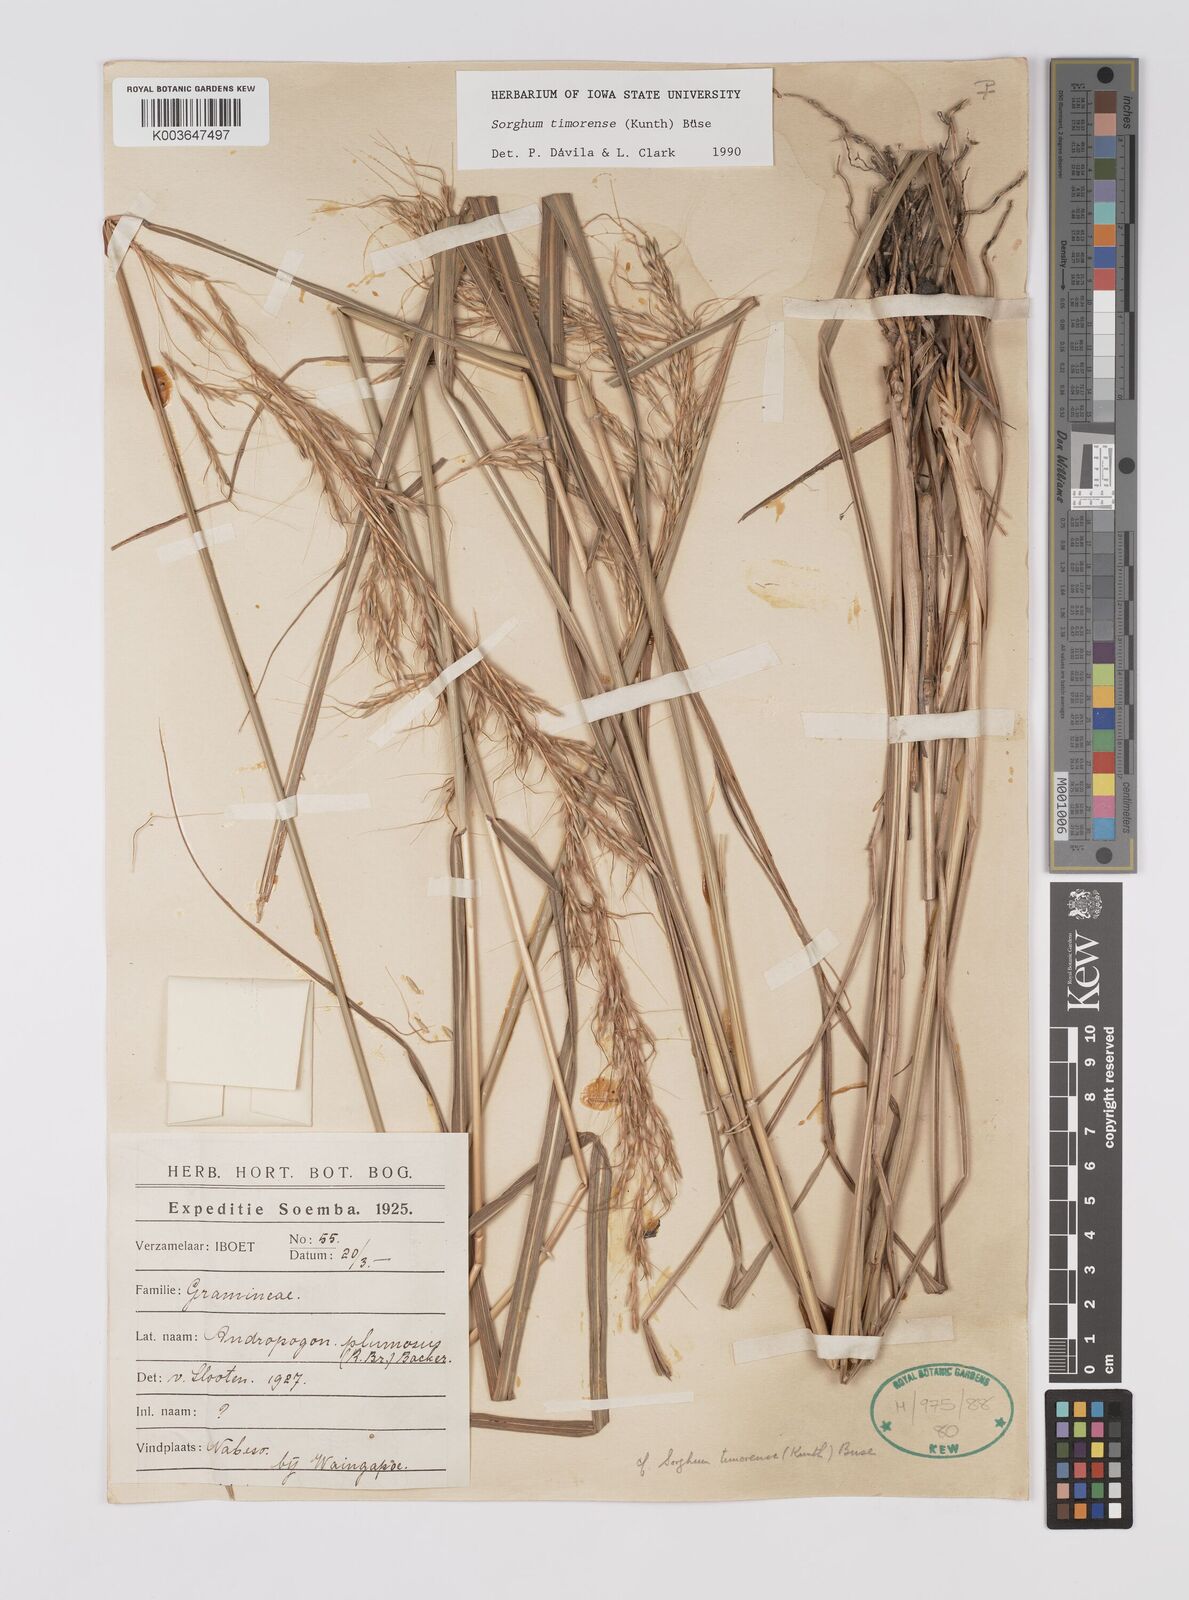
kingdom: Plantae
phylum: Tracheophyta
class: Liliopsida
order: Poales
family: Poaceae
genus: Sarga
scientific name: Sarga timorensis
